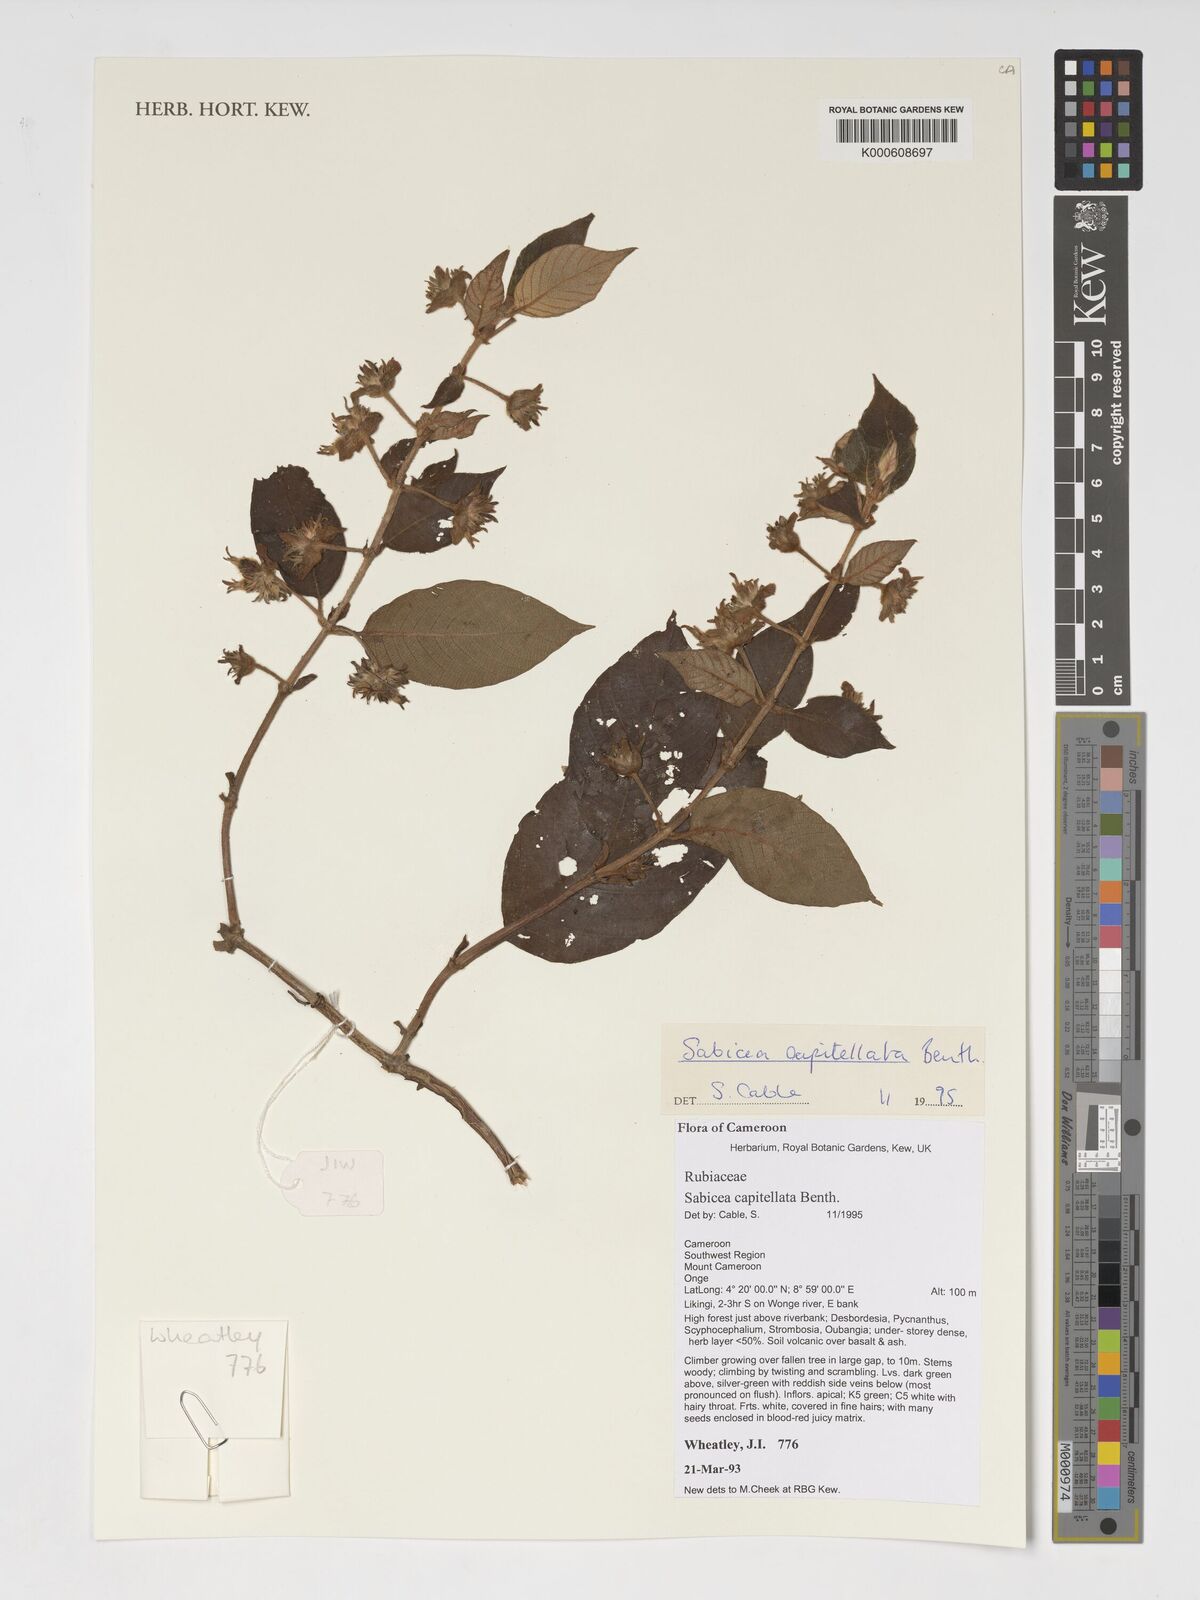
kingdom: Plantae
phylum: Tracheophyta
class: Magnoliopsida
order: Gentianales
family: Rubiaceae
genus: Sabicea
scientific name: Sabicea capitellata
